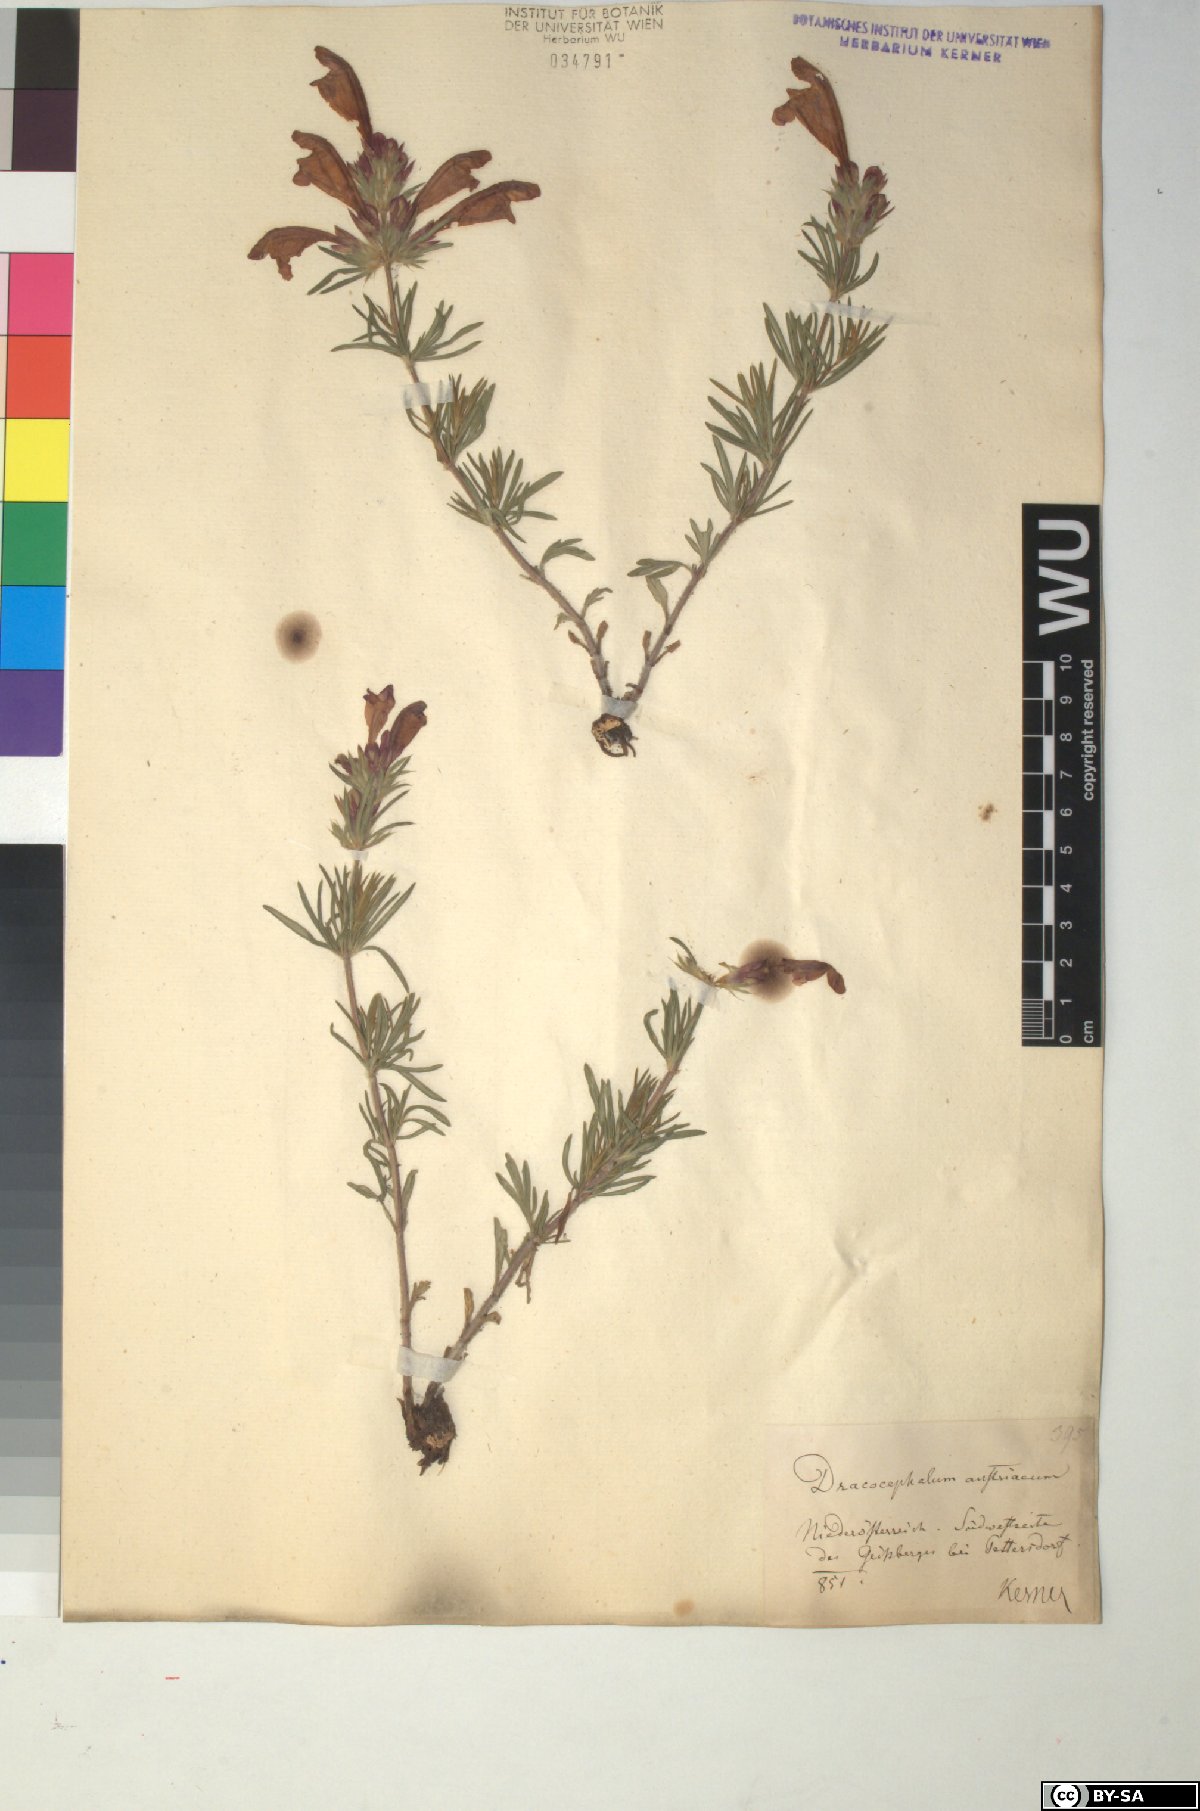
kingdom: Plantae
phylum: Tracheophyta
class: Magnoliopsida
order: Lamiales
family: Lamiaceae
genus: Dracocephalum
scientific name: Dracocephalum austriacum
